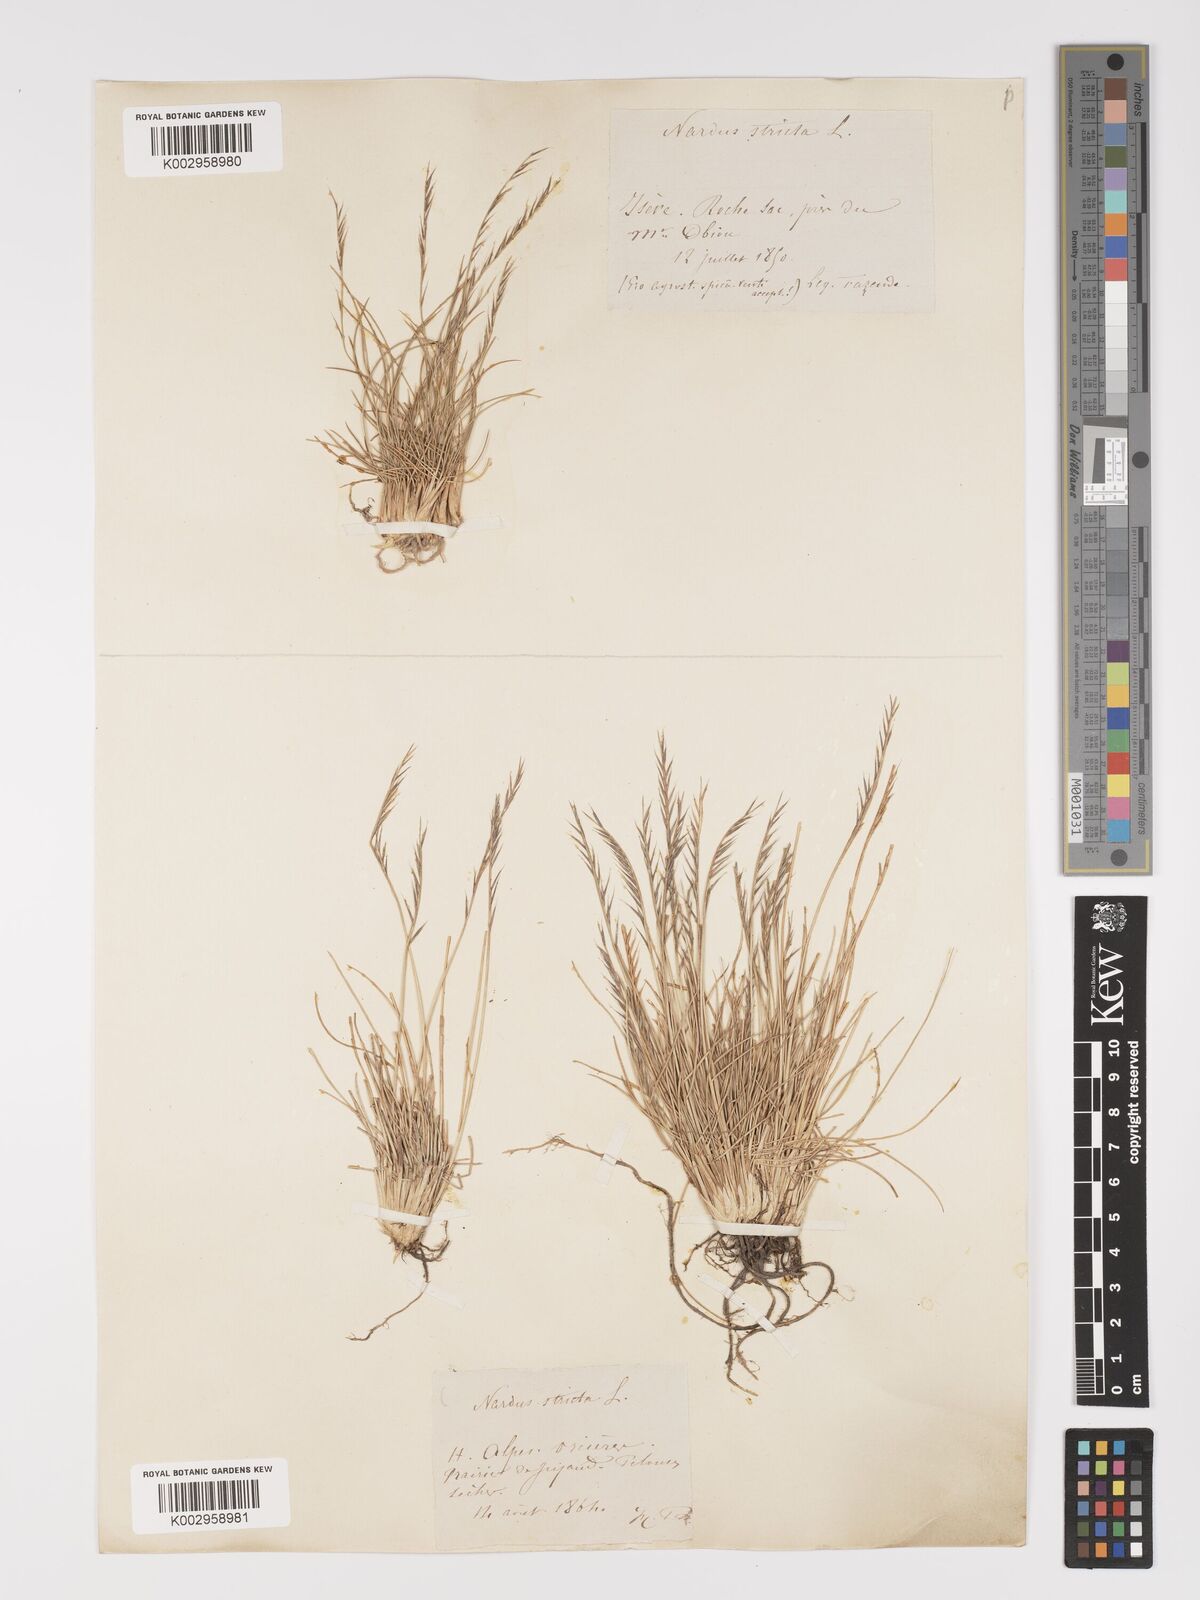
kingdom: Plantae
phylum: Tracheophyta
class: Liliopsida
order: Poales
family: Poaceae
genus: Nardus
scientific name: Nardus stricta
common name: Mat-grass
